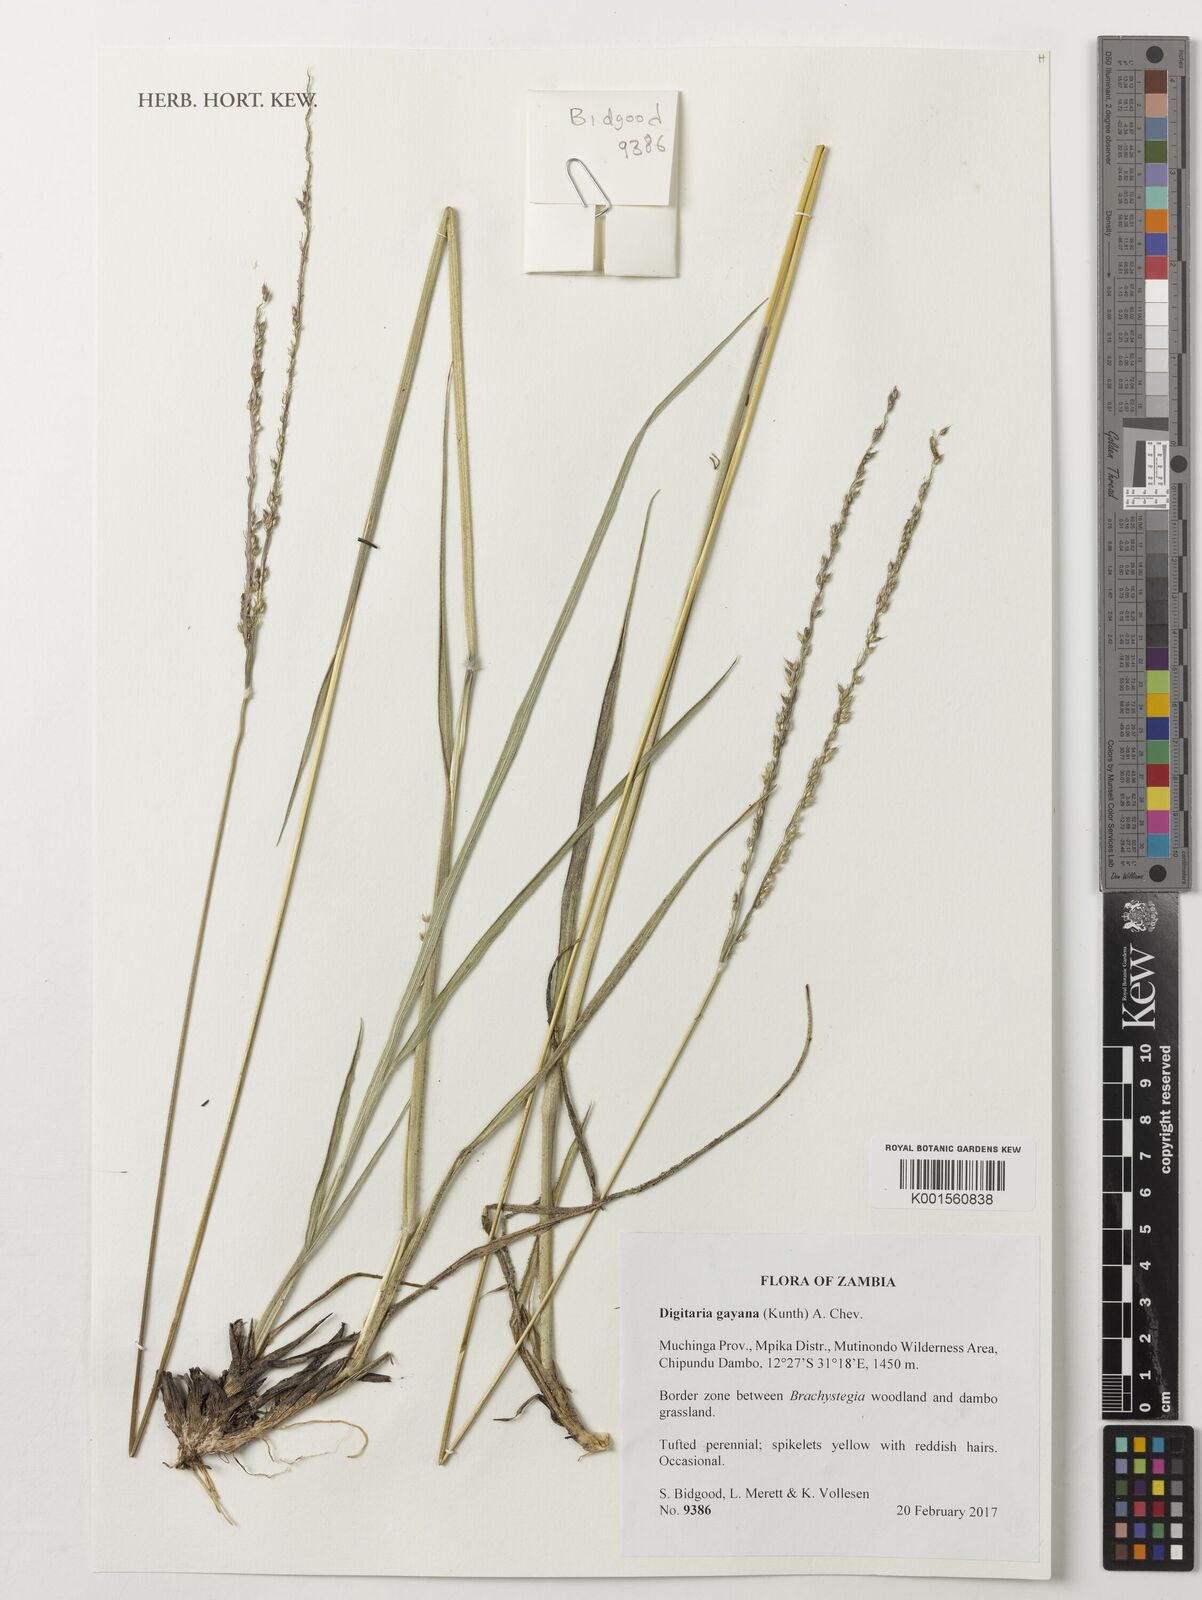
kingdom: Plantae
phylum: Tracheophyta
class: Liliopsida
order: Poales
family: Poaceae
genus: Digitaria
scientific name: Digitaria gayana
